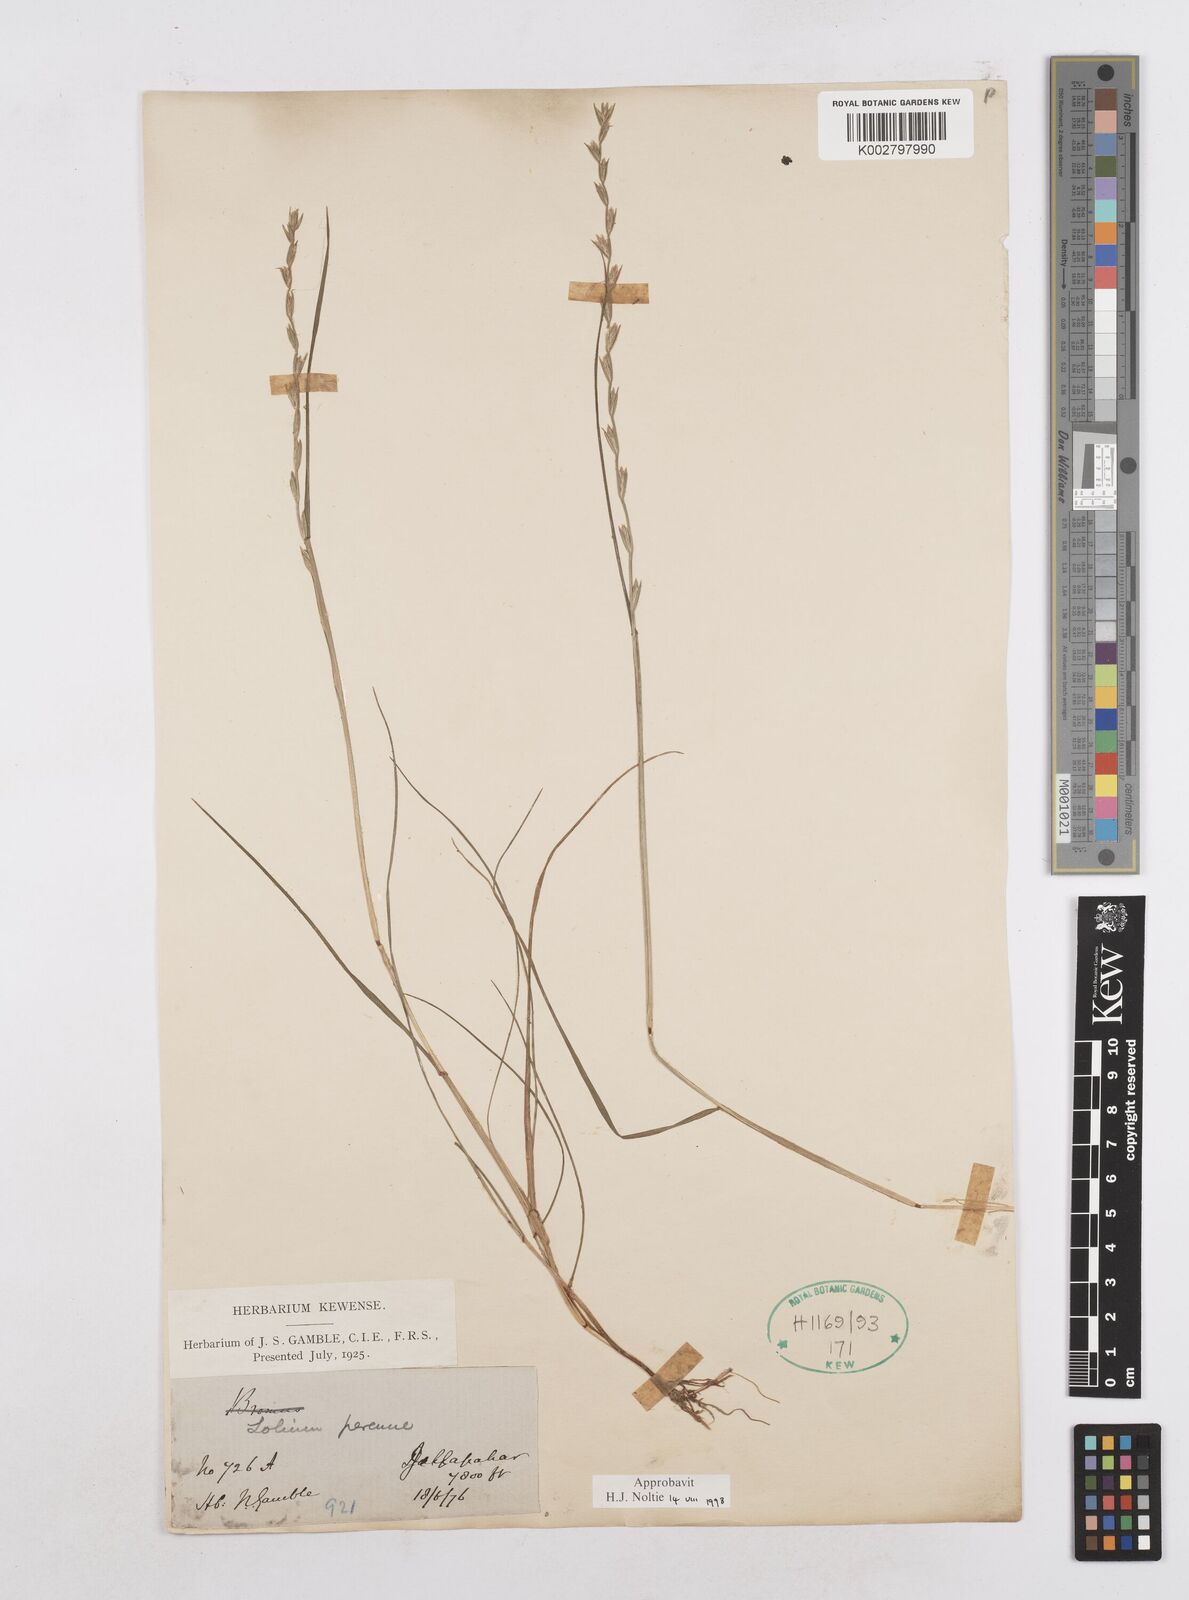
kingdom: Plantae
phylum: Tracheophyta
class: Liliopsida
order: Poales
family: Poaceae
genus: Lolium
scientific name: Lolium perenne
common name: Perennial ryegrass
